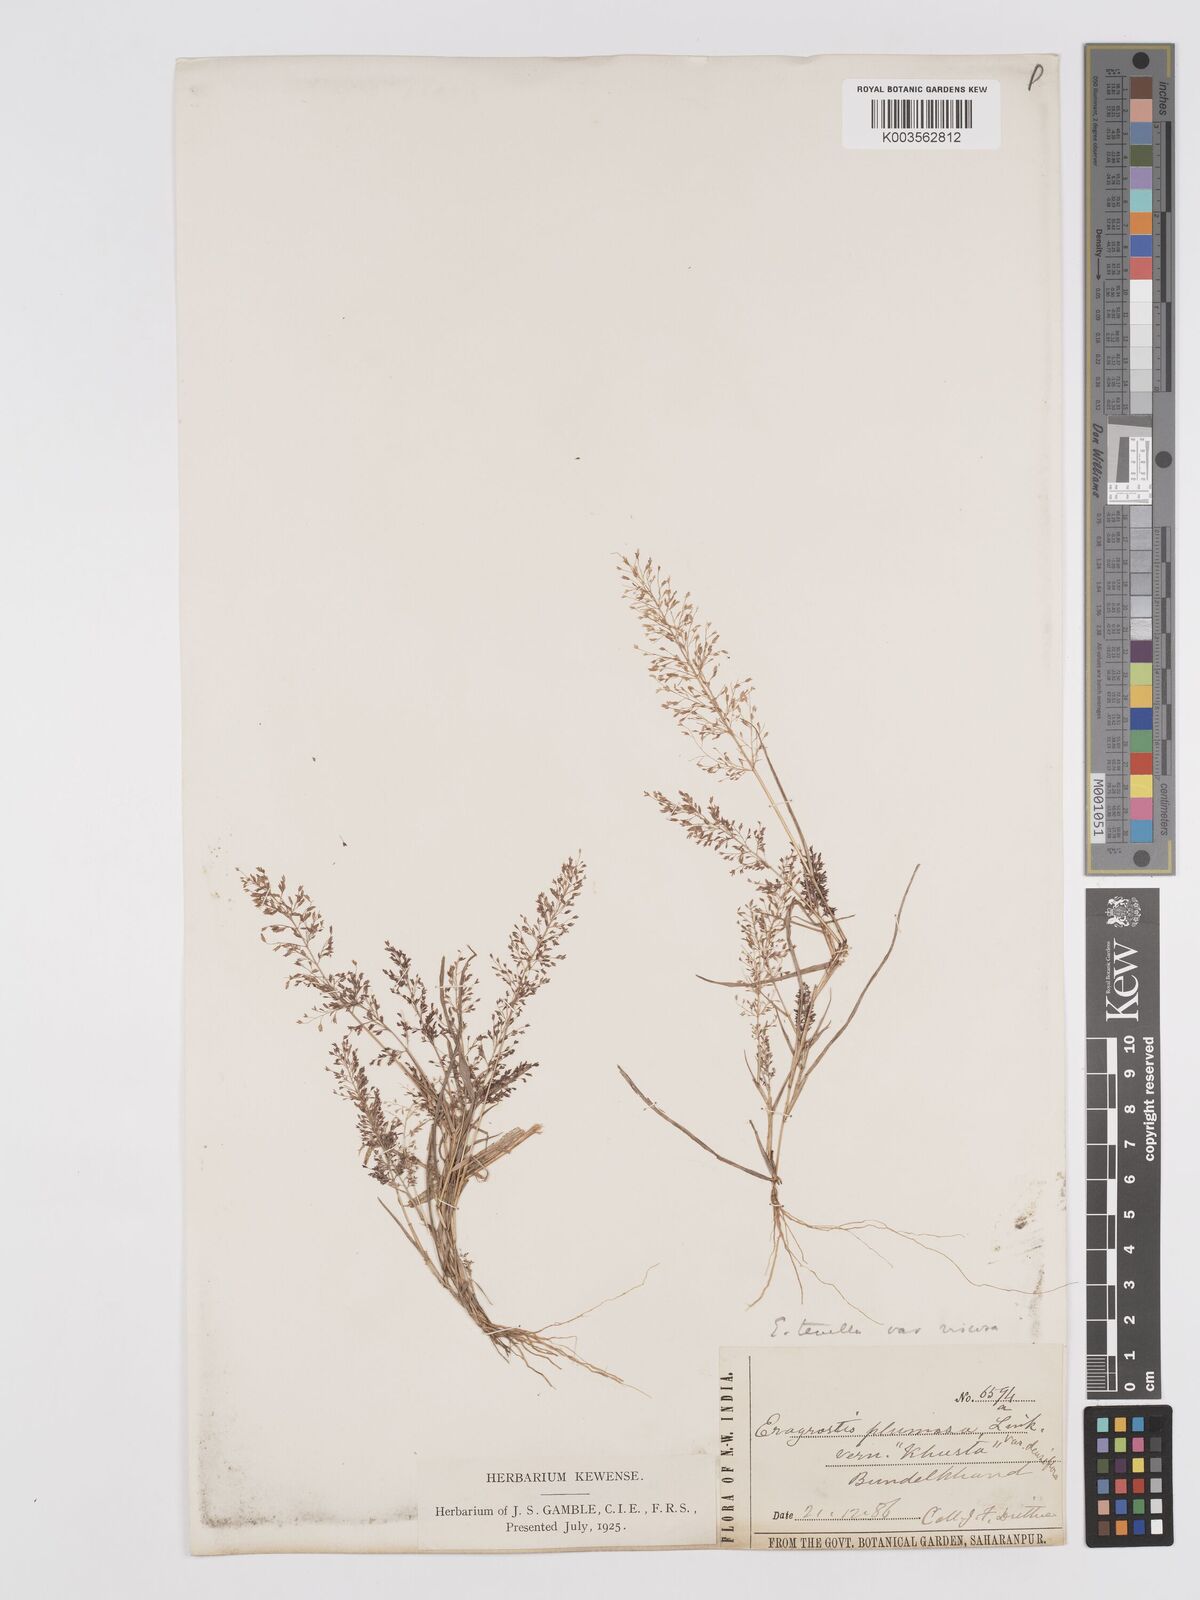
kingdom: Plantae
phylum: Tracheophyta
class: Liliopsida
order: Poales
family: Poaceae
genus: Eragrostis
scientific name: Eragrostis viscosa
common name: Sticky love grass
